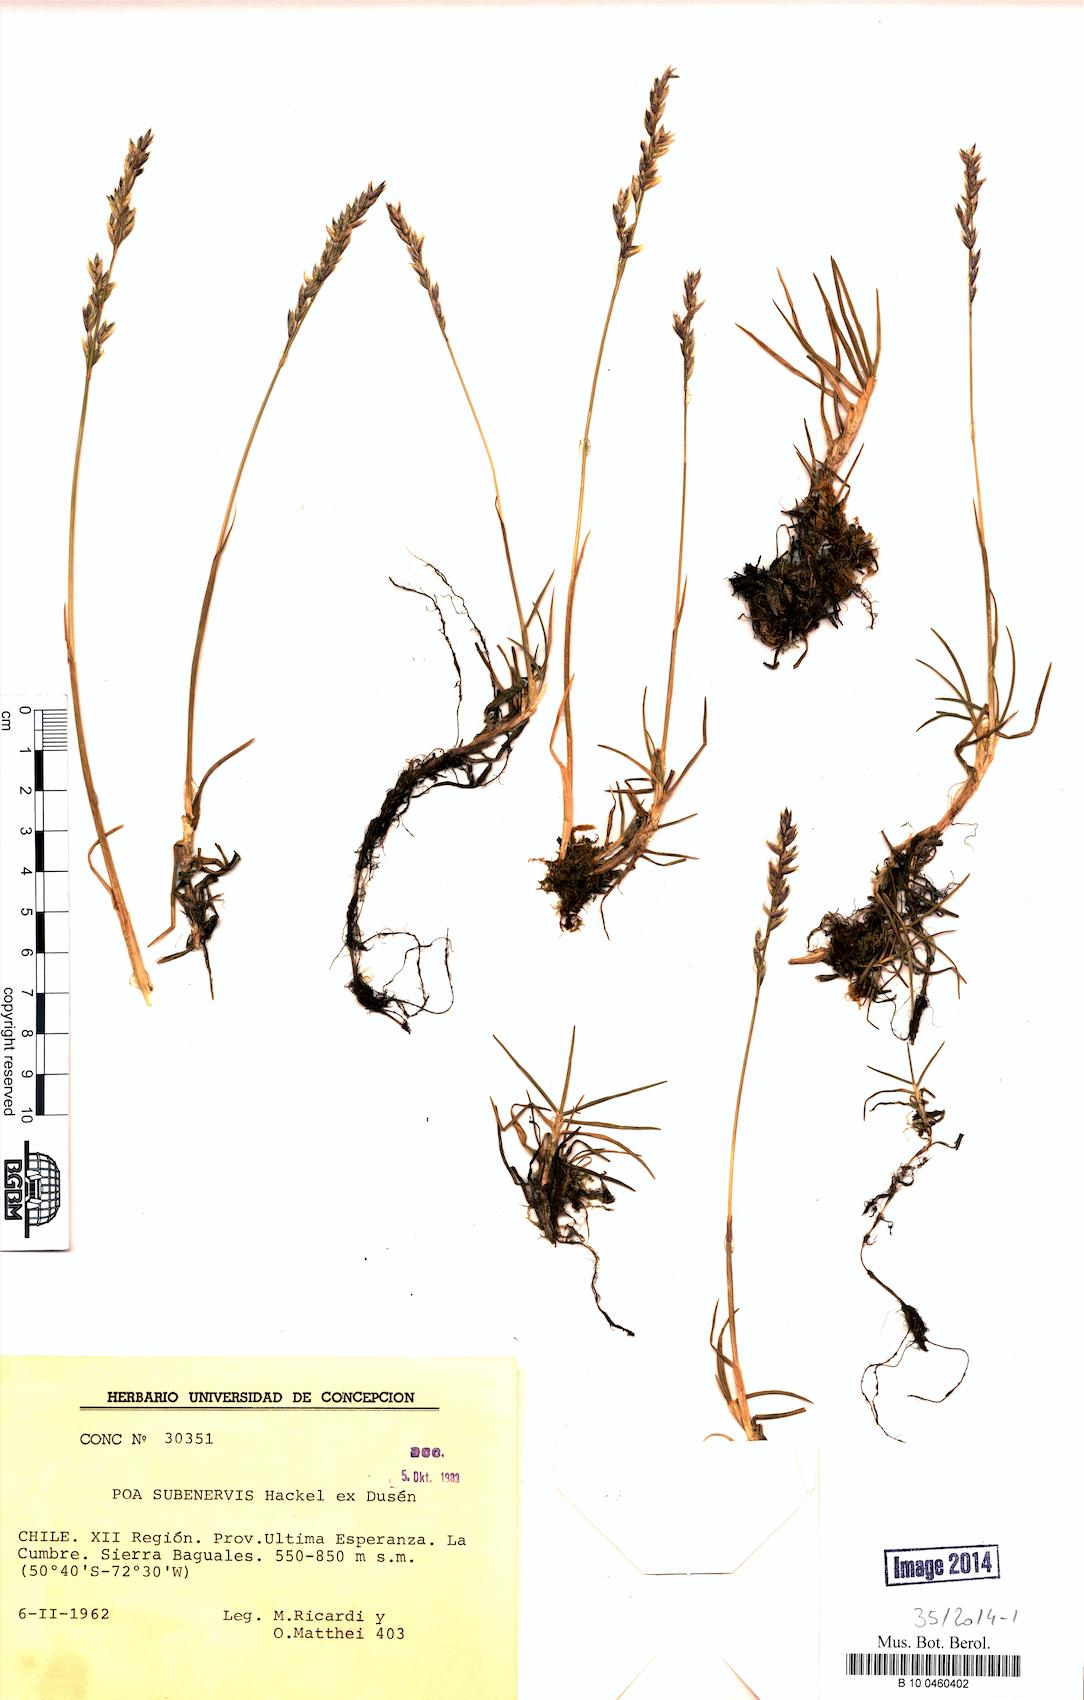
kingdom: Plantae
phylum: Tracheophyta
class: Liliopsida
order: Poales
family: Poaceae
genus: Nicoraepoa
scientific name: Nicoraepoa subenervis
